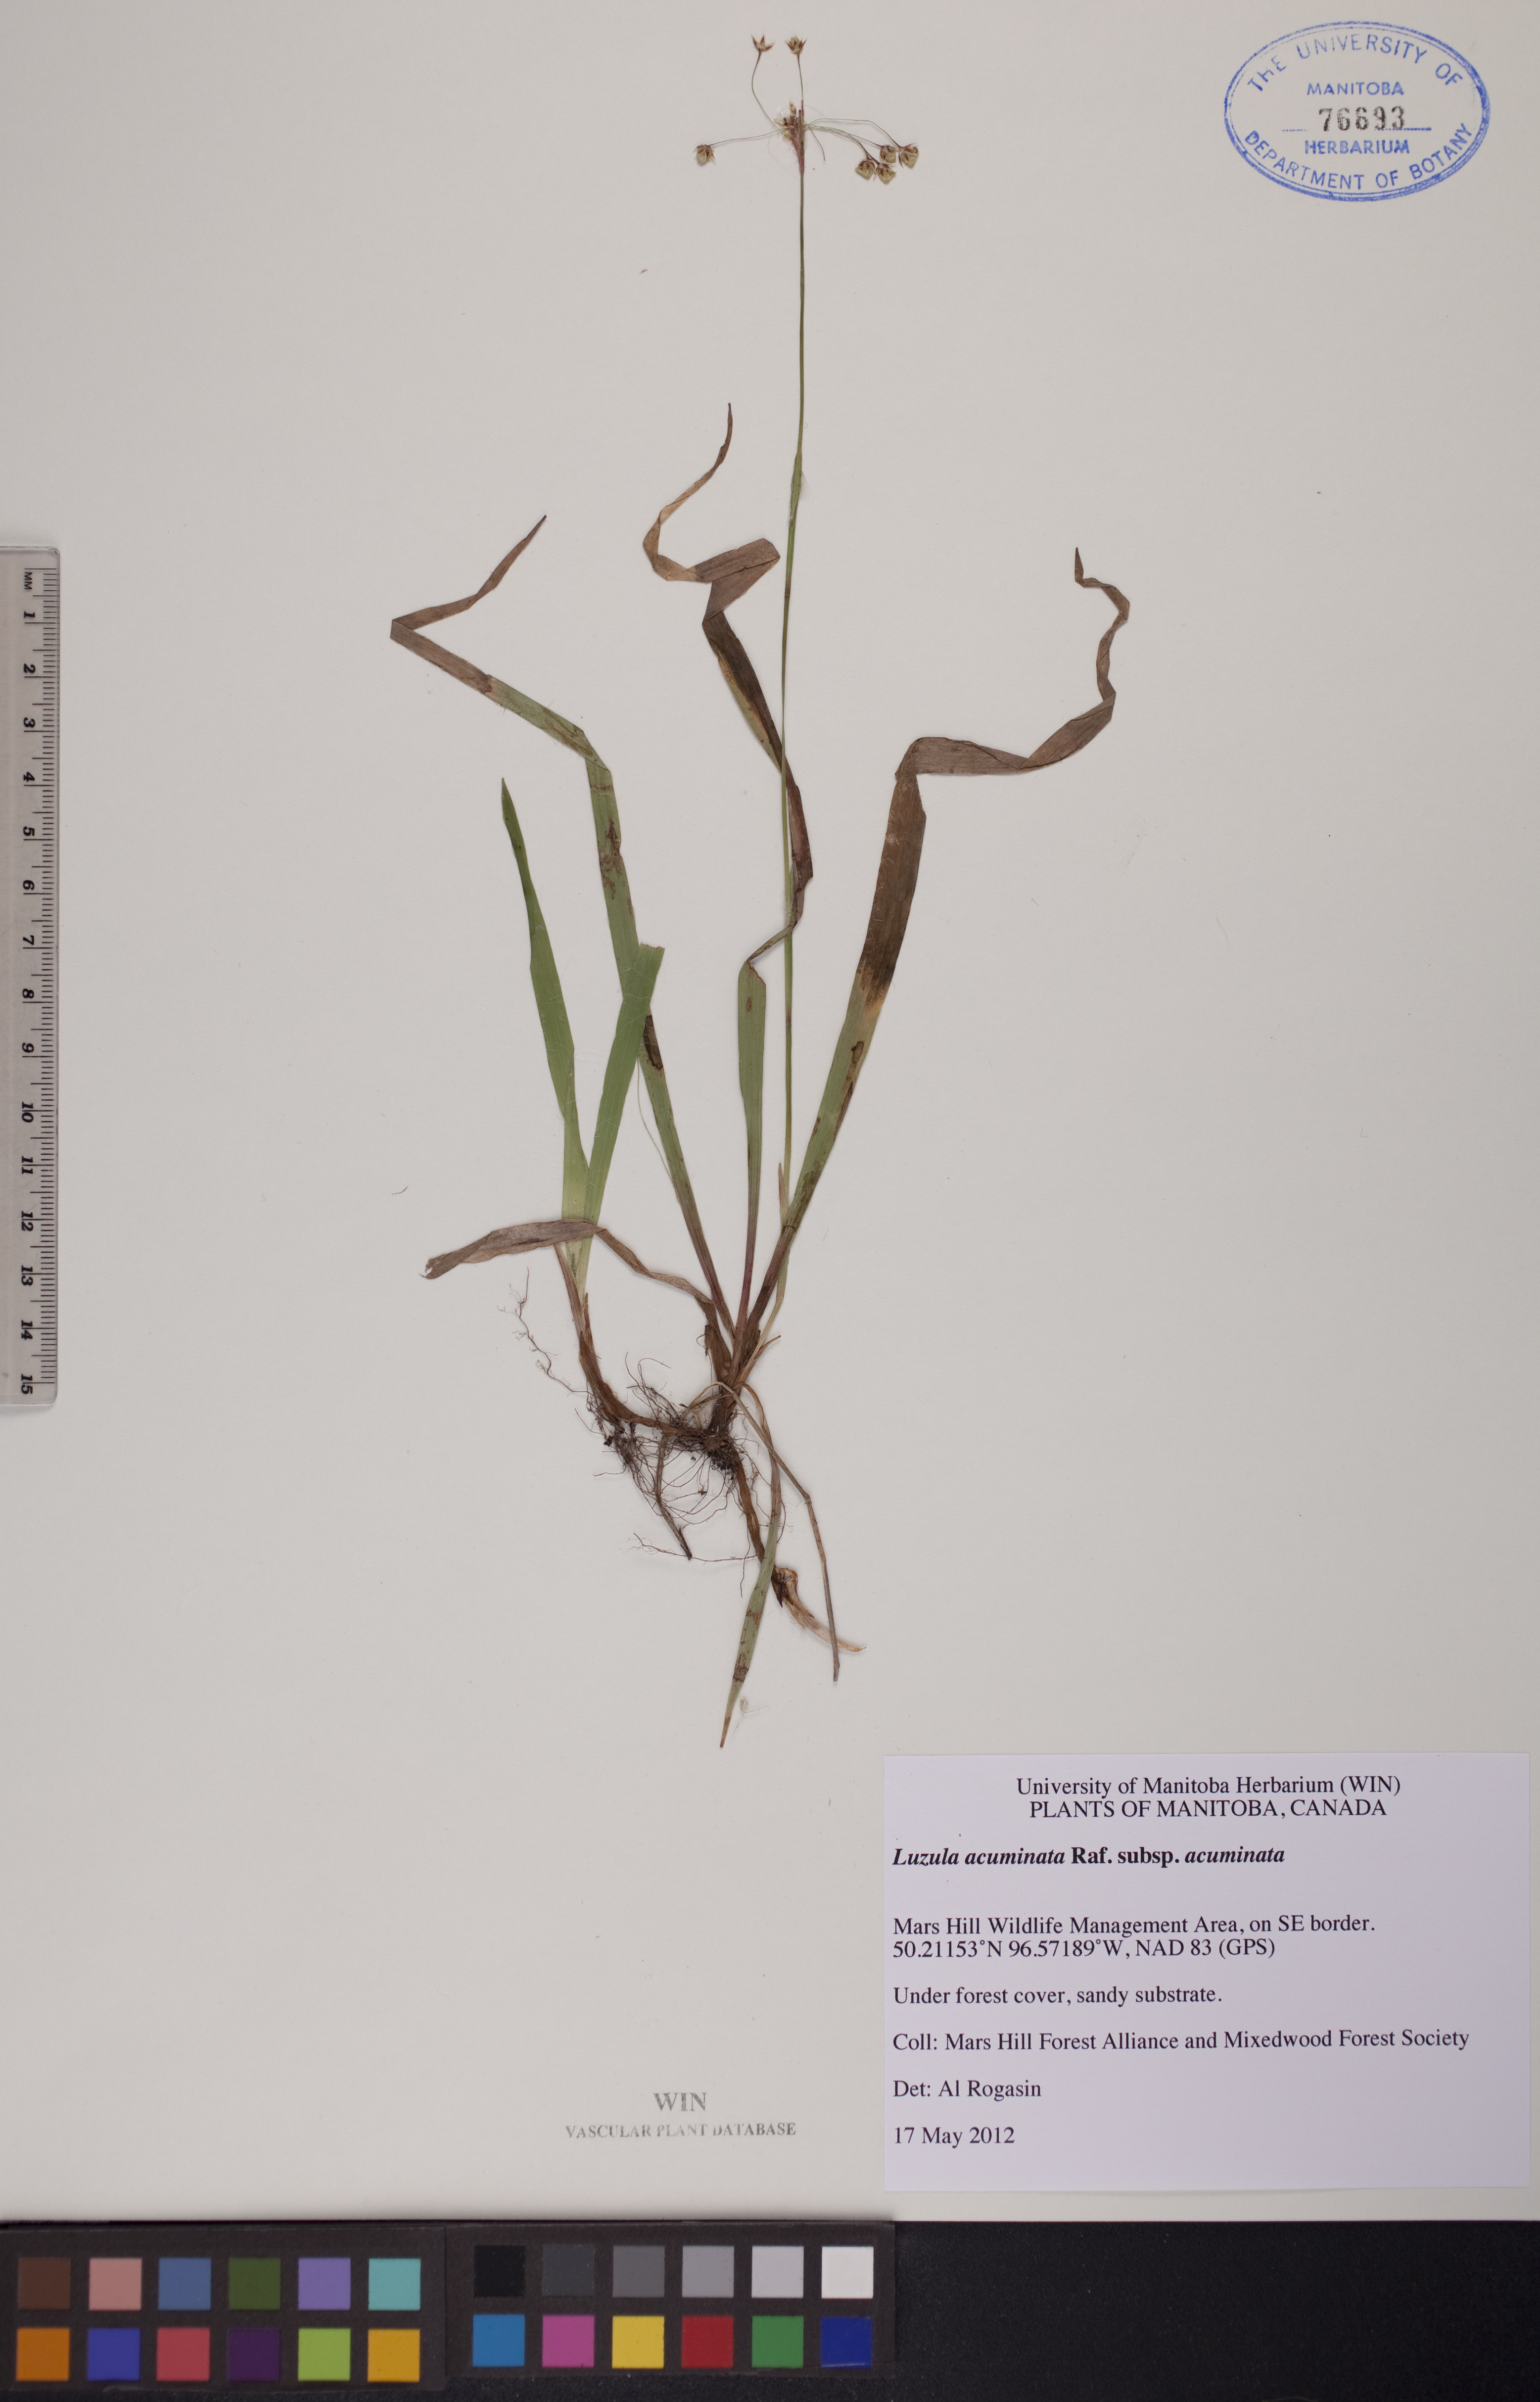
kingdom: Plantae
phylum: Tracheophyta
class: Liliopsida
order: Poales
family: Juncaceae
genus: Luzula
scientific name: Luzula acuminata
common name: Hairy woodrush
